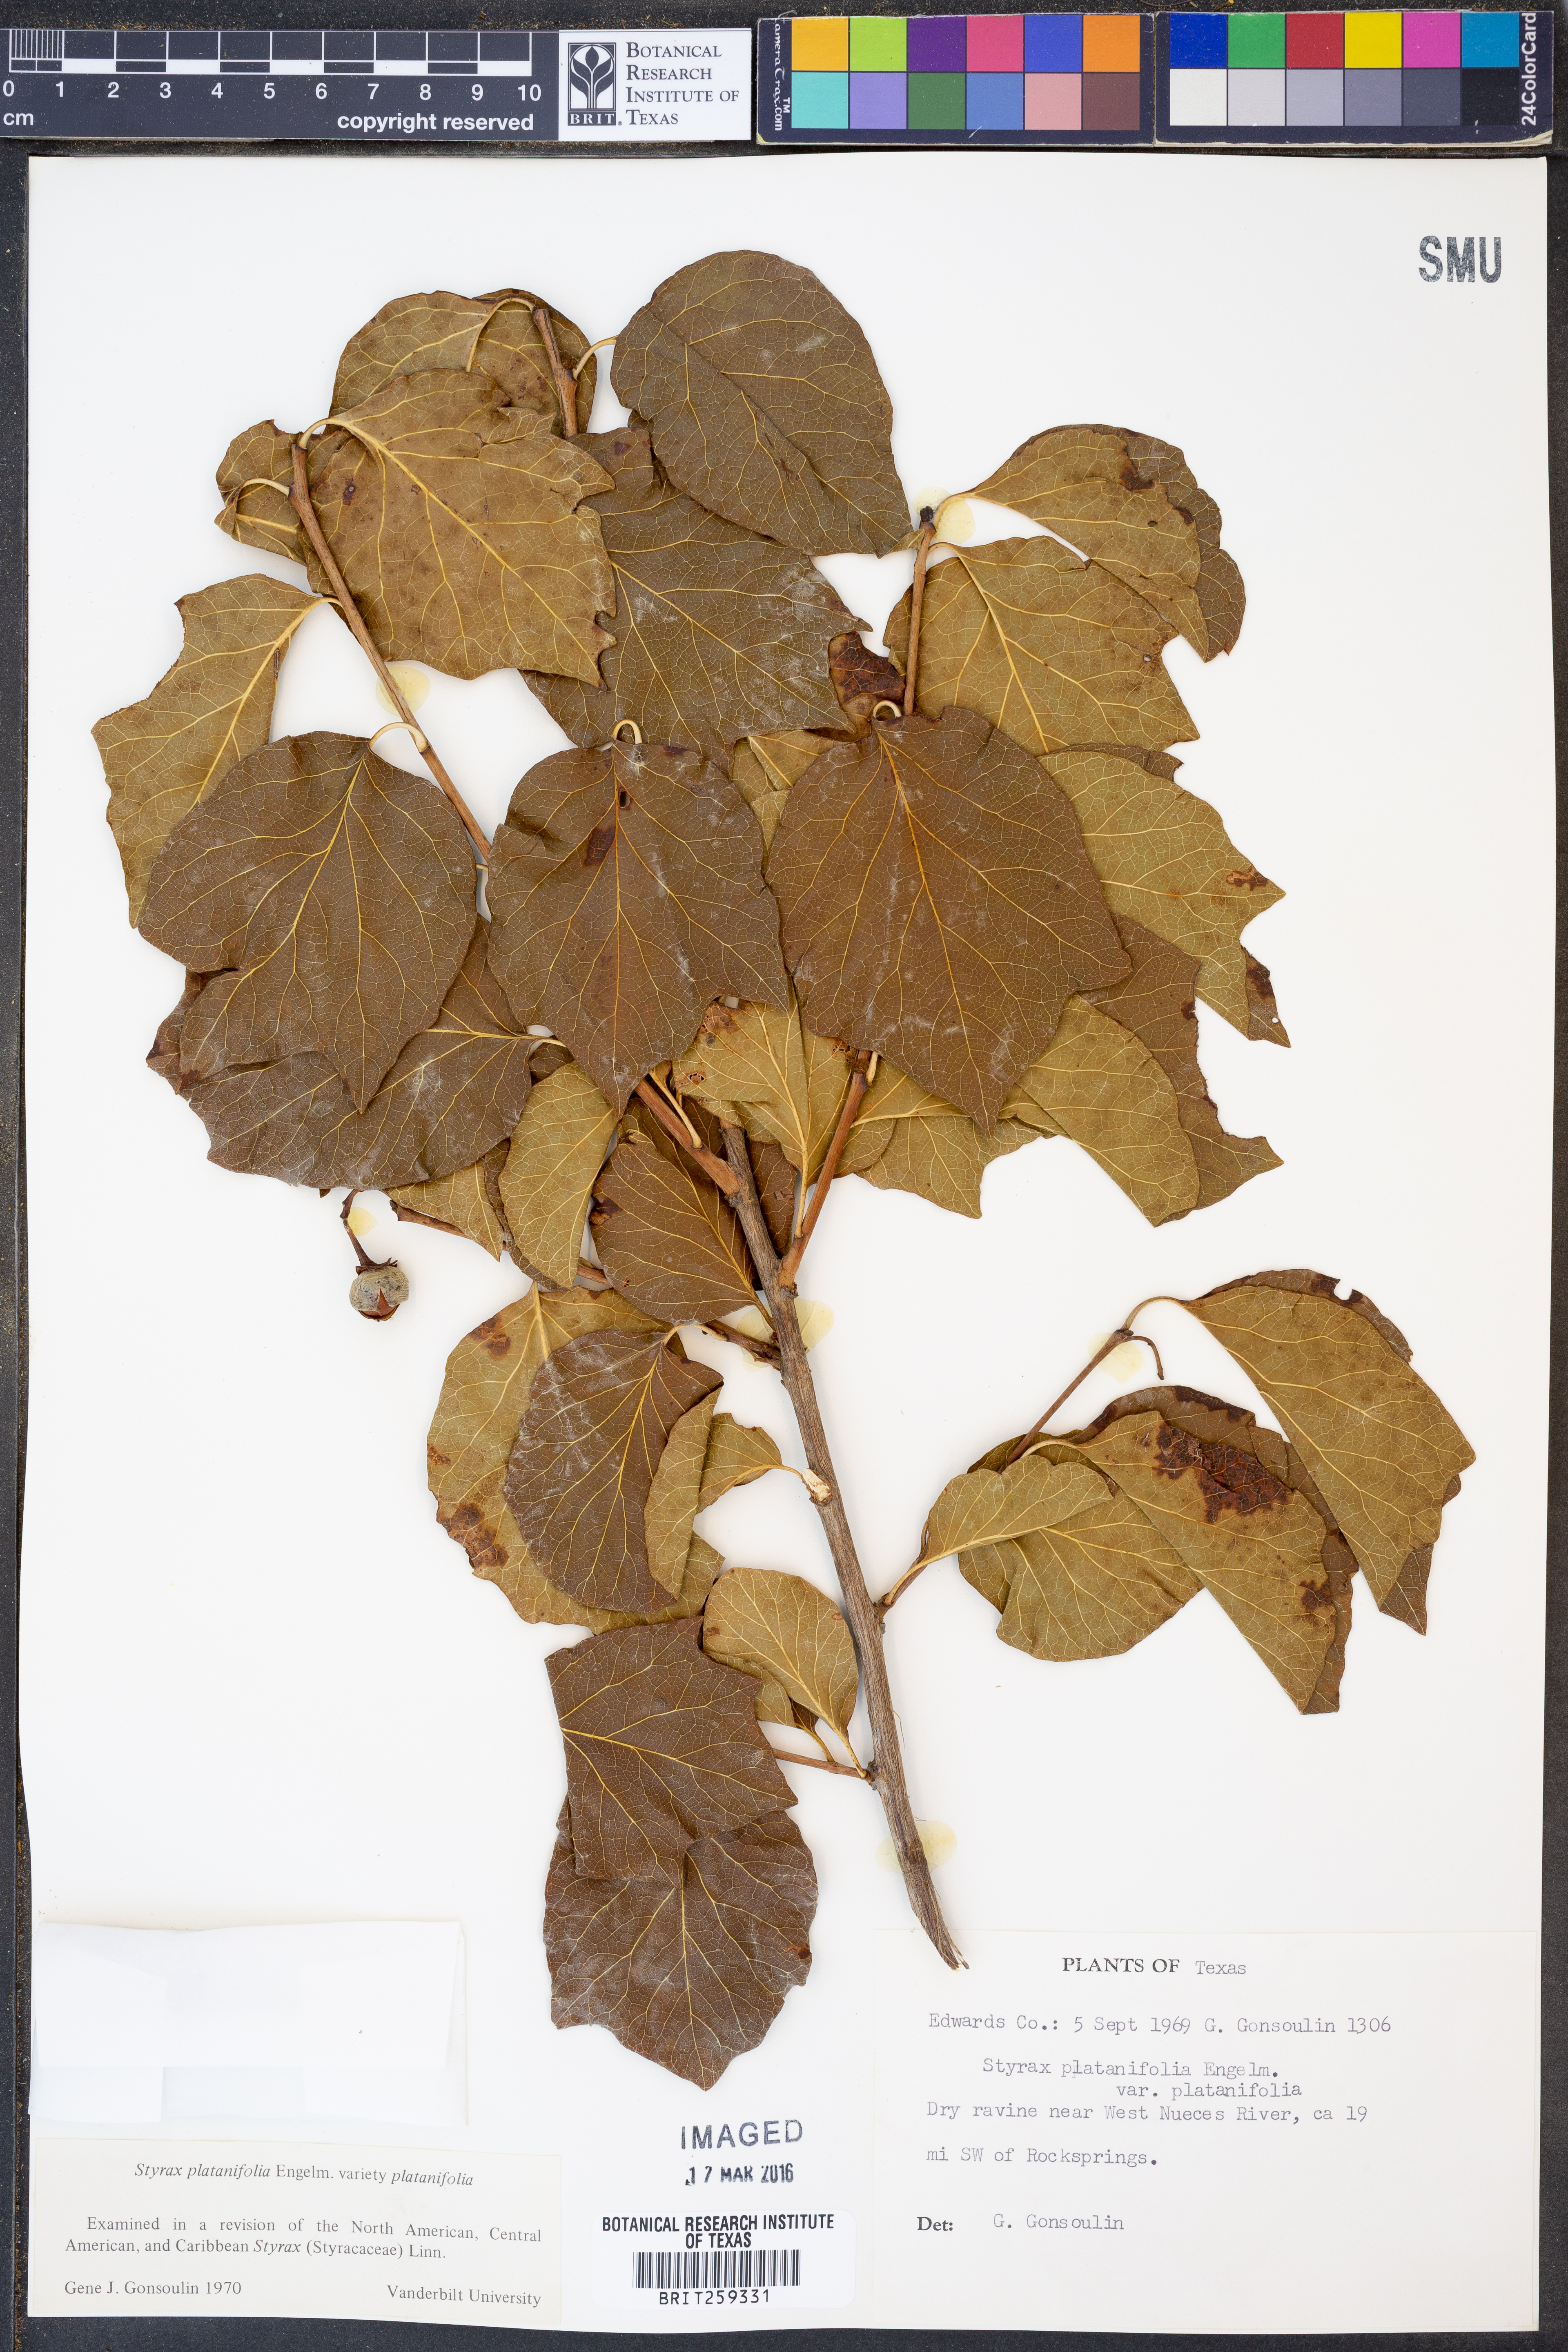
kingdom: Plantae
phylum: Tracheophyta
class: Magnoliopsida
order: Ericales
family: Styracaceae
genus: Styrax
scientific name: Styrax platanifolius
